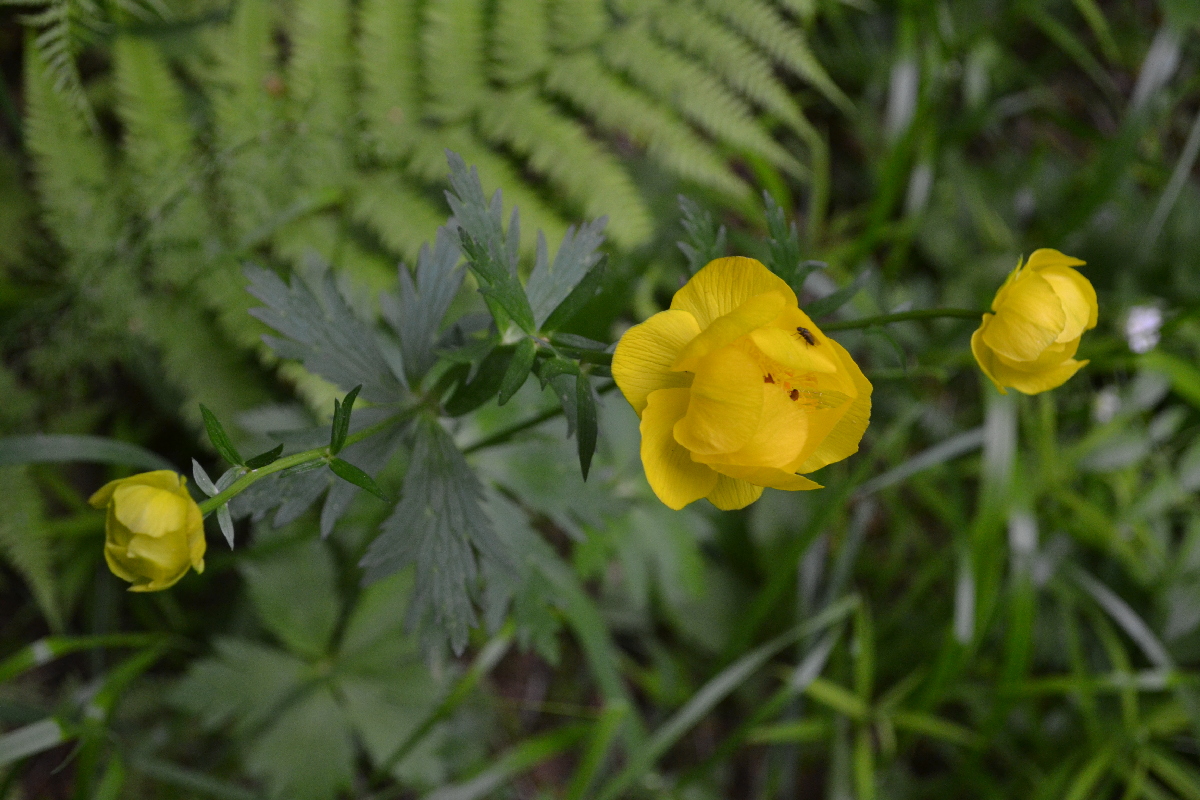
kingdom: Plantae
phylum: Tracheophyta
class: Magnoliopsida
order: Ranunculales
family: Ranunculaceae
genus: Trollius
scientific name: Trollius europaeus
